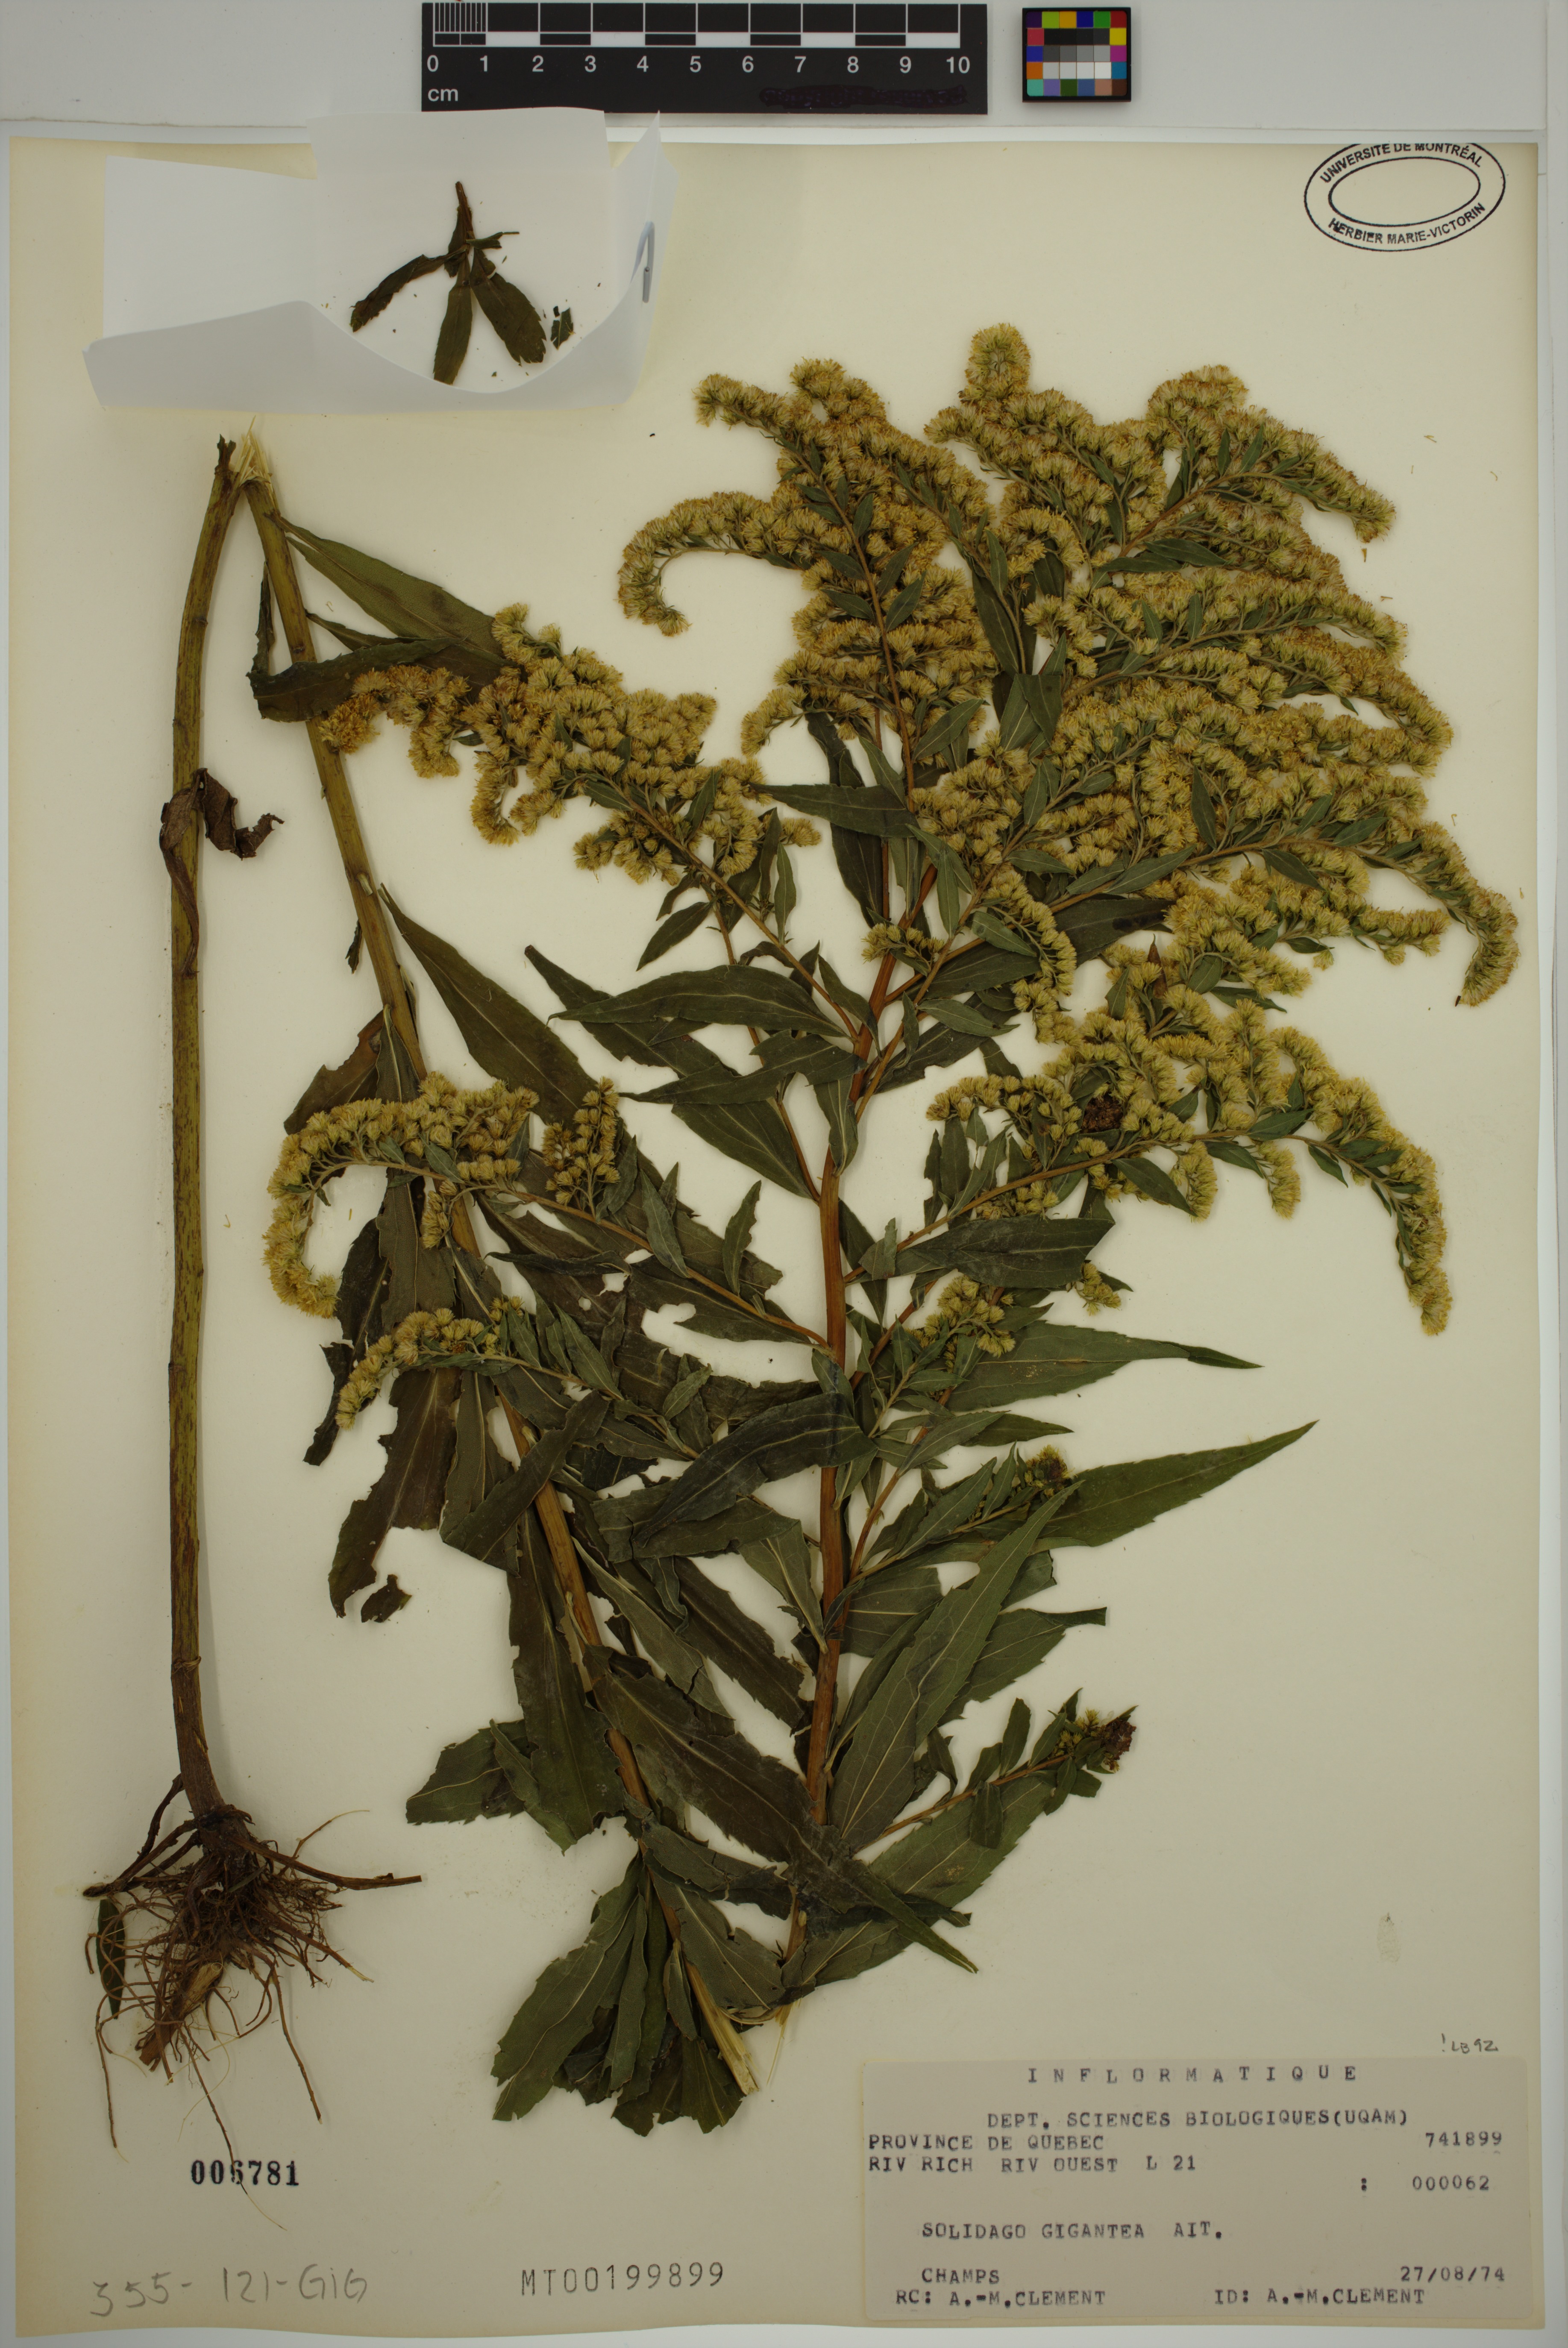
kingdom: Plantae
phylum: Tracheophyta
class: Magnoliopsida
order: Asterales
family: Asteraceae
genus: Solidago
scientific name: Solidago gigantea
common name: Giant goldenrod
